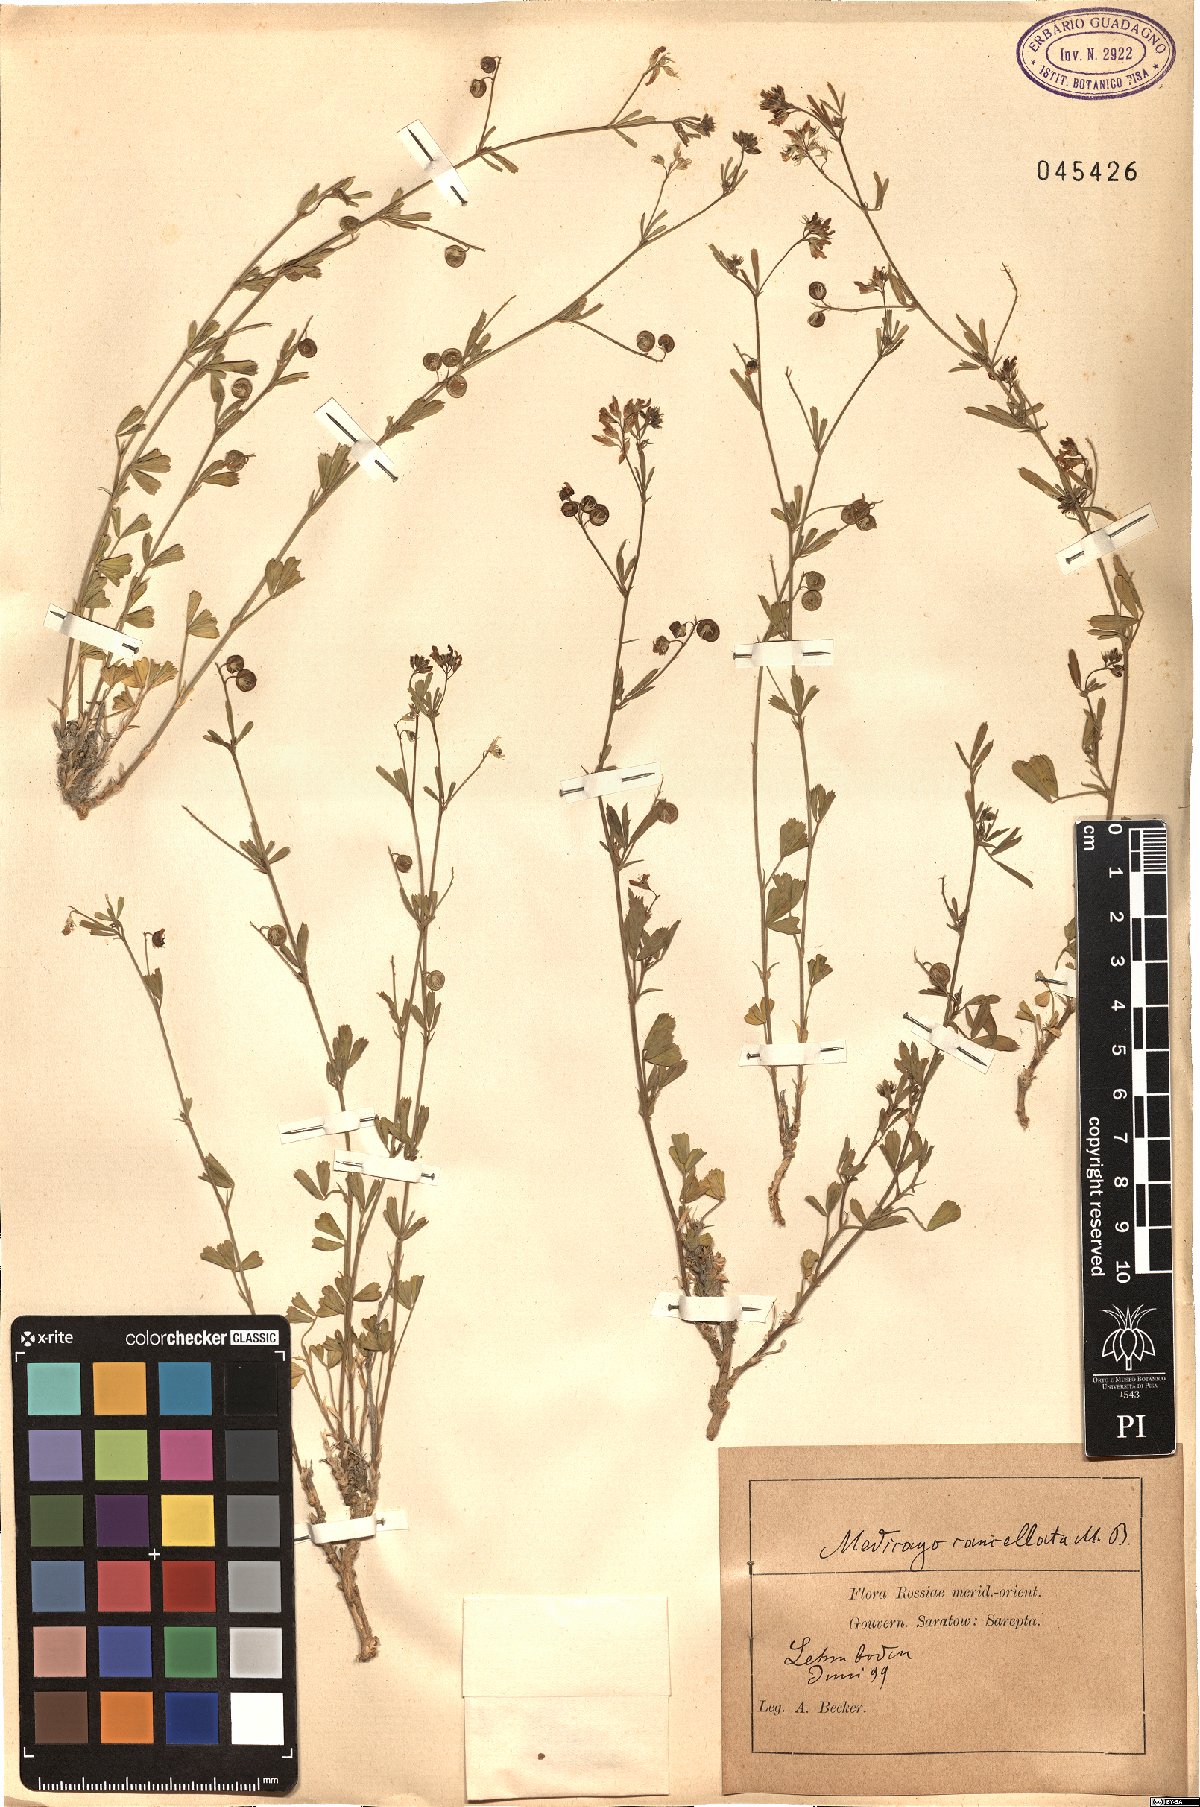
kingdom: Plantae
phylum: Tracheophyta
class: Magnoliopsida
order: Fabales
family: Fabaceae
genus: Medicago
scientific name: Medicago cancellata
